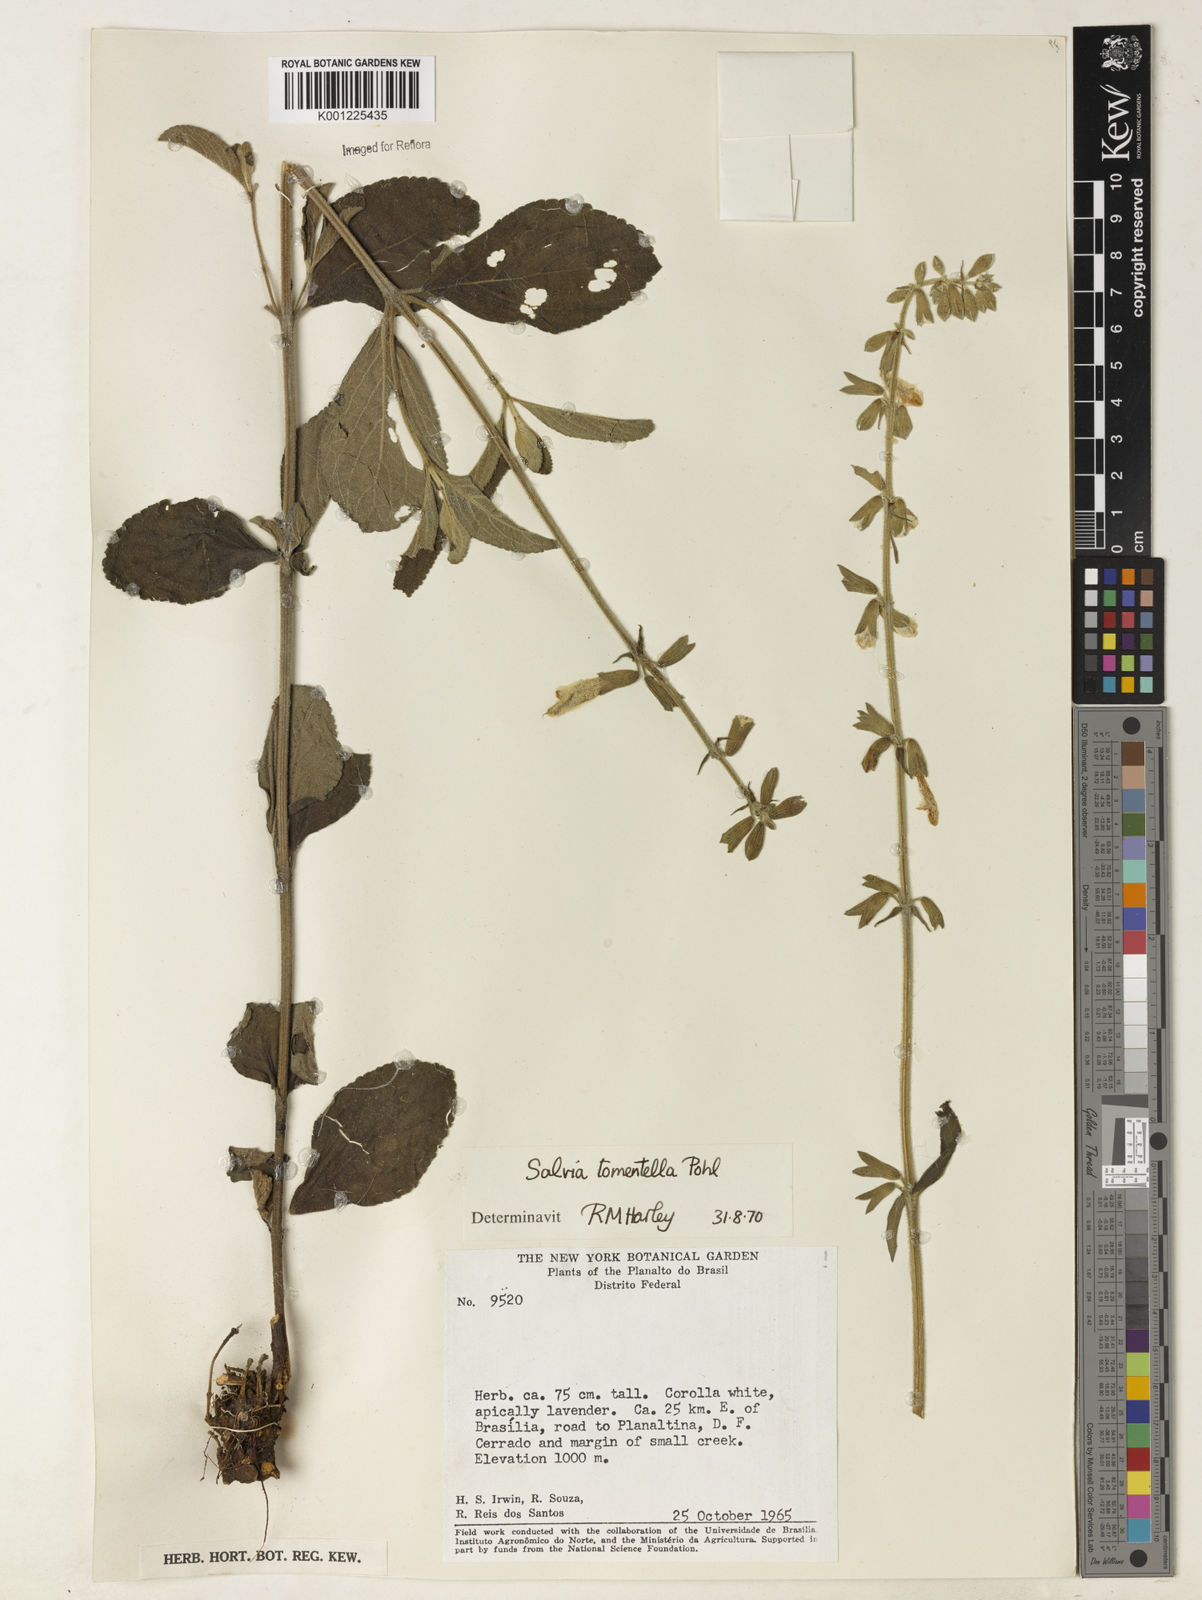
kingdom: Plantae
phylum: Tracheophyta
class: Magnoliopsida
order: Lamiales
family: Lamiaceae
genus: Salvia
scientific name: Salvia tomentella
